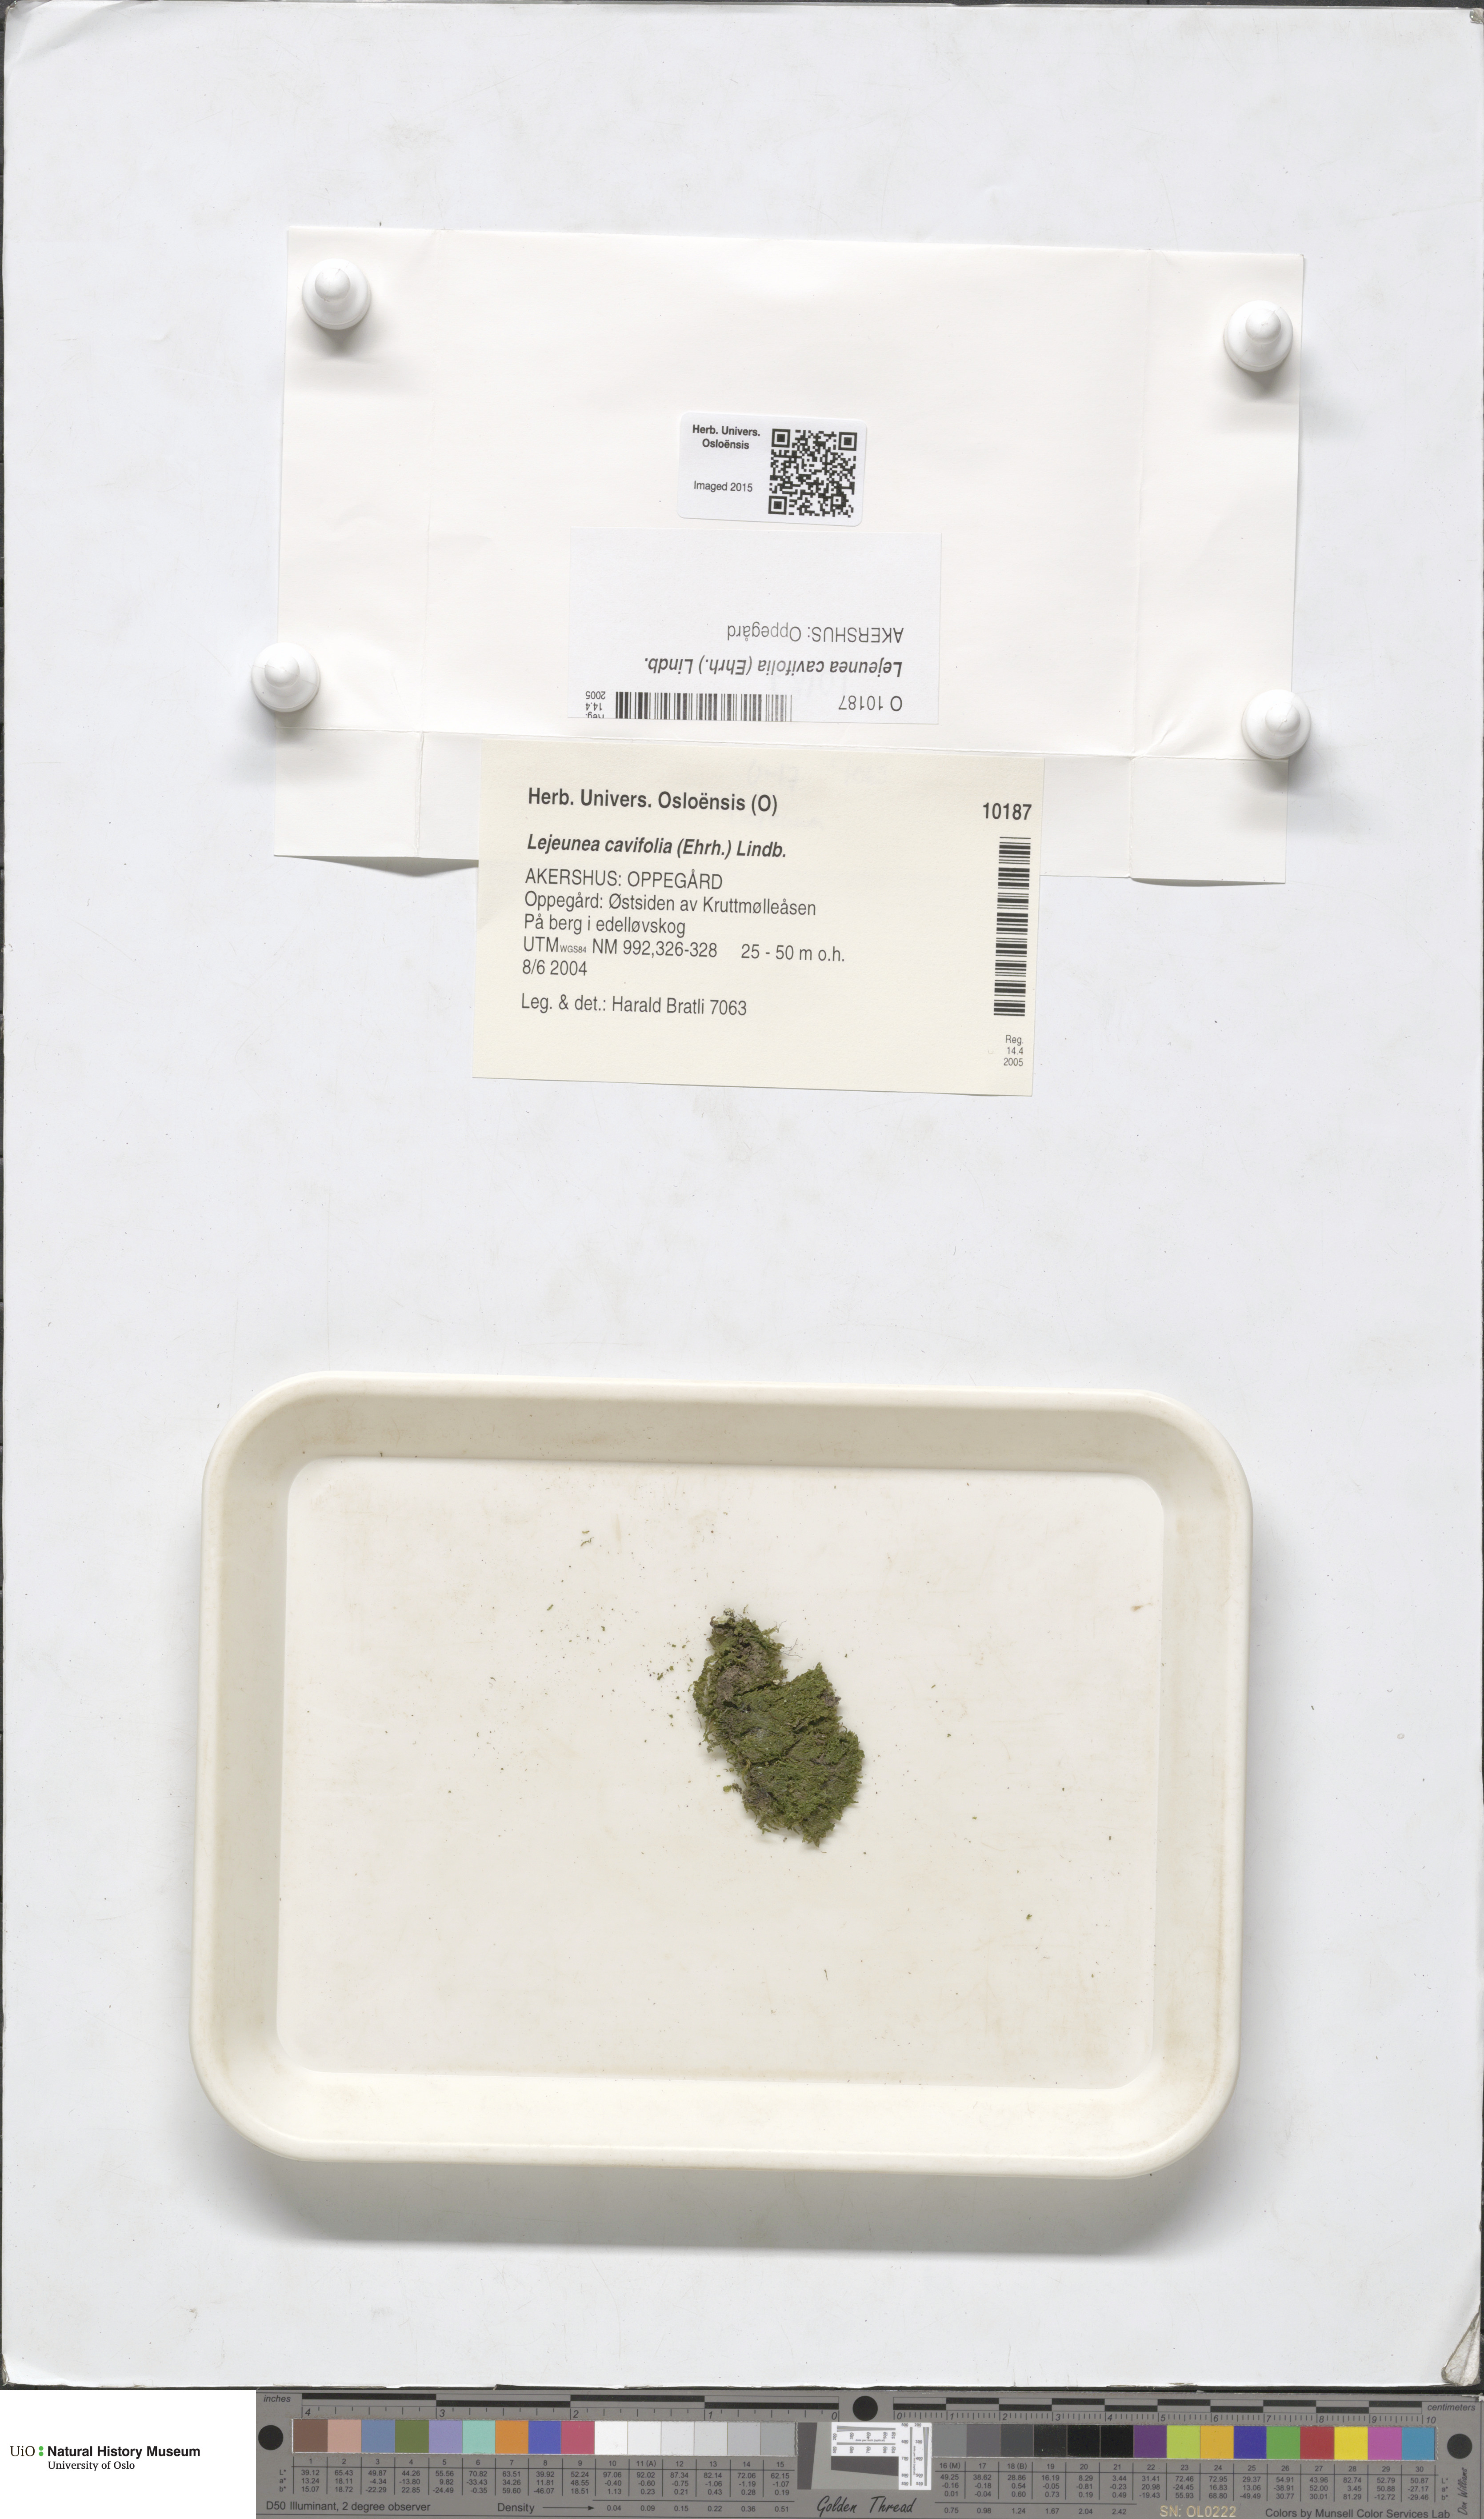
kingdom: Plantae
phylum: Marchantiophyta
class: Jungermanniopsida
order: Porellales
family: Lejeuneaceae
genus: Lejeunea
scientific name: Lejeunea cavifolia
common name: Least pouncewort
